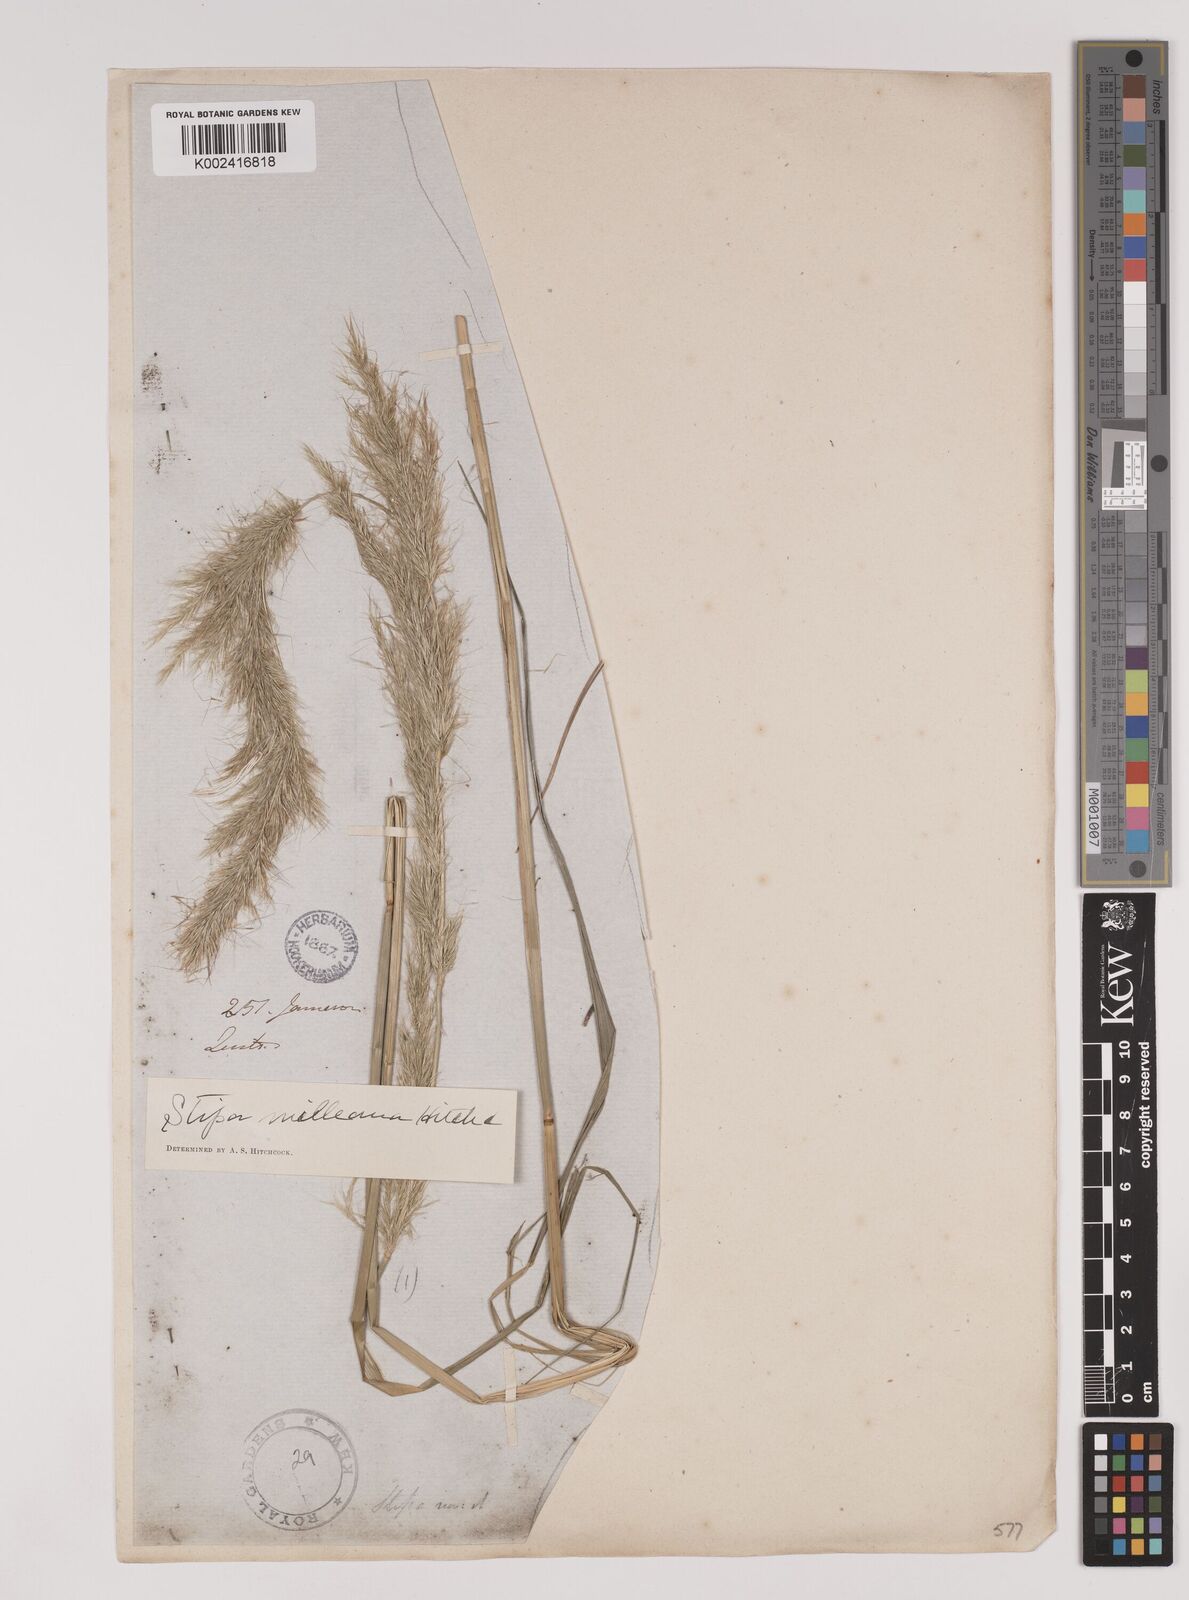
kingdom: Plantae
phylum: Tracheophyta
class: Liliopsida
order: Poales
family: Poaceae
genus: Stipa
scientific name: Stipa milleana
